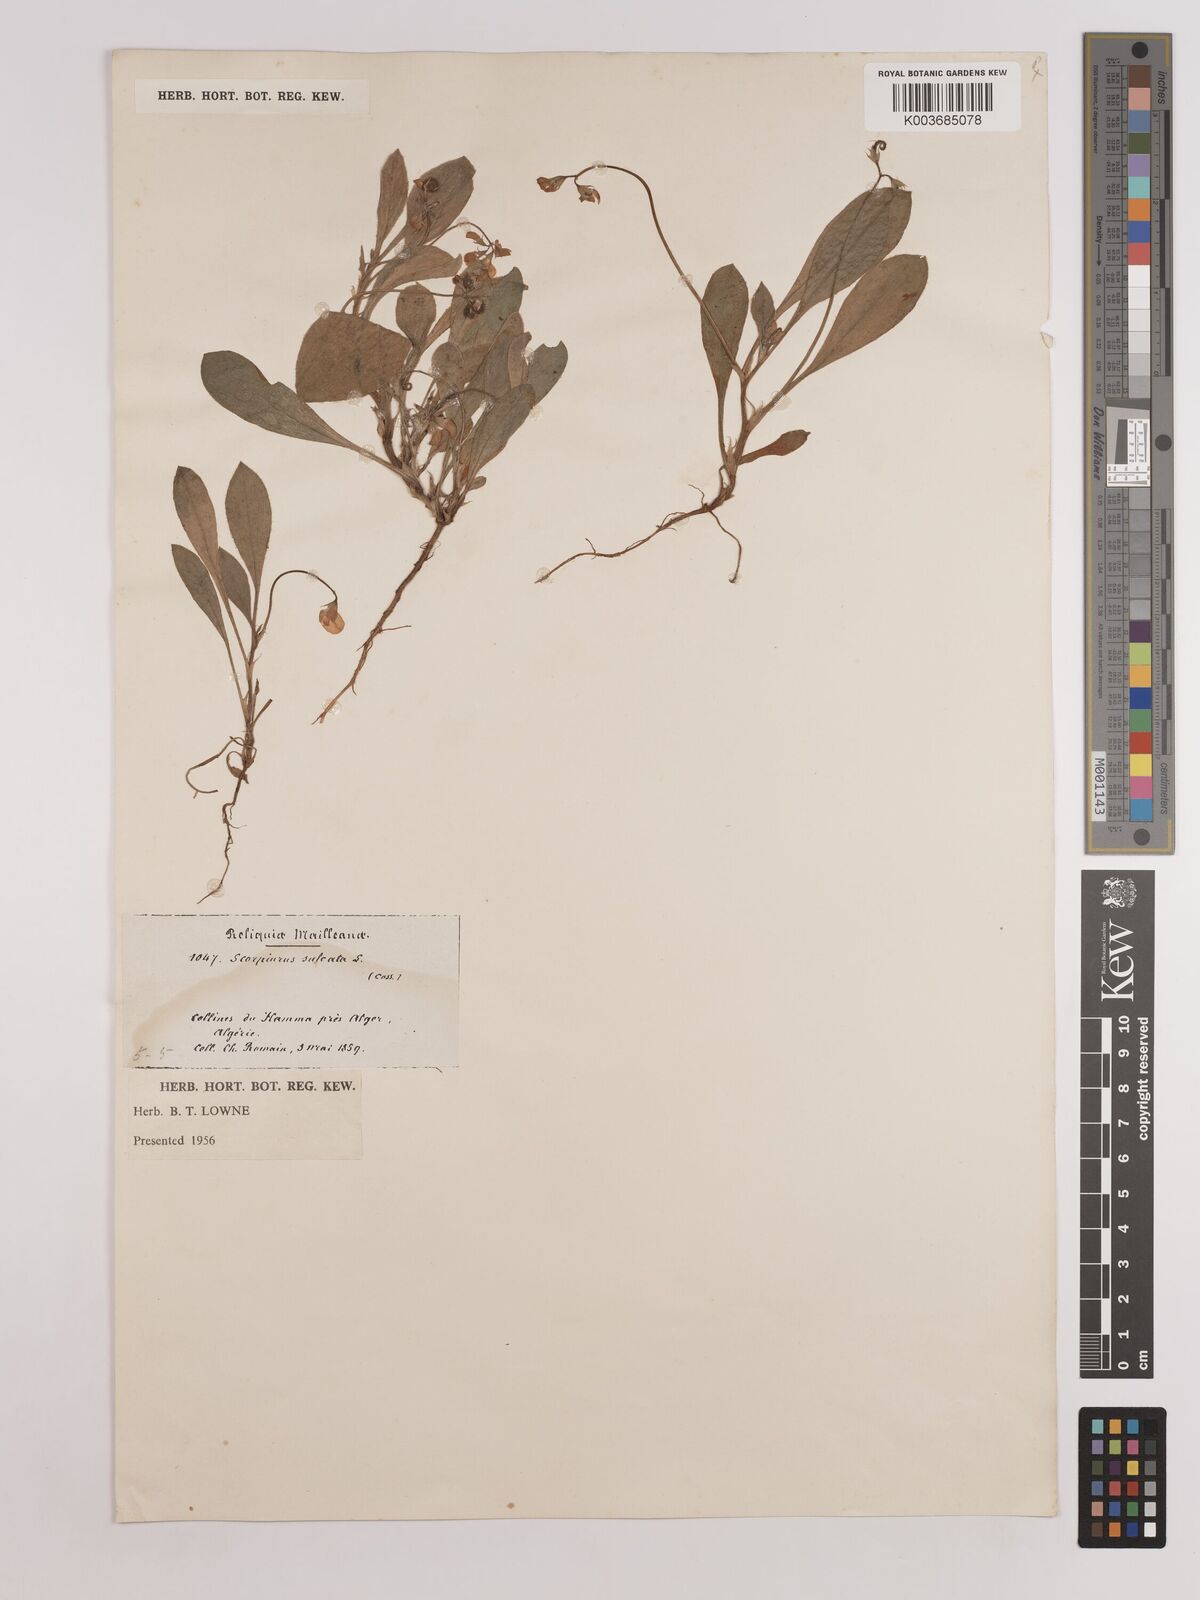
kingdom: Plantae
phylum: Tracheophyta
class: Magnoliopsida
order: Fabales
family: Fabaceae
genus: Scorpiurus
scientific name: Scorpiurus muricatus
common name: Caterpillar-plant
